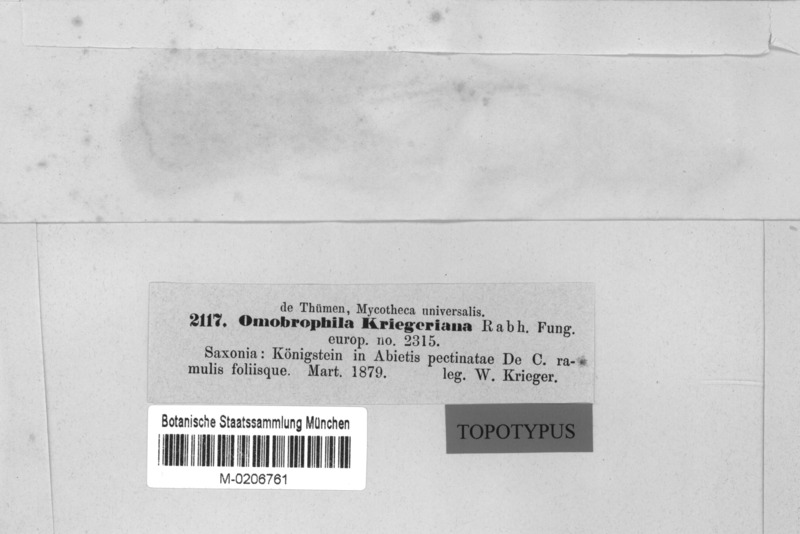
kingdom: Fungi
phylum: Ascomycota
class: Leotiomycetes
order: Helotiales
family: Rutstroemiaceae
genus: Rutstroemia
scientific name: Rutstroemia elatina
